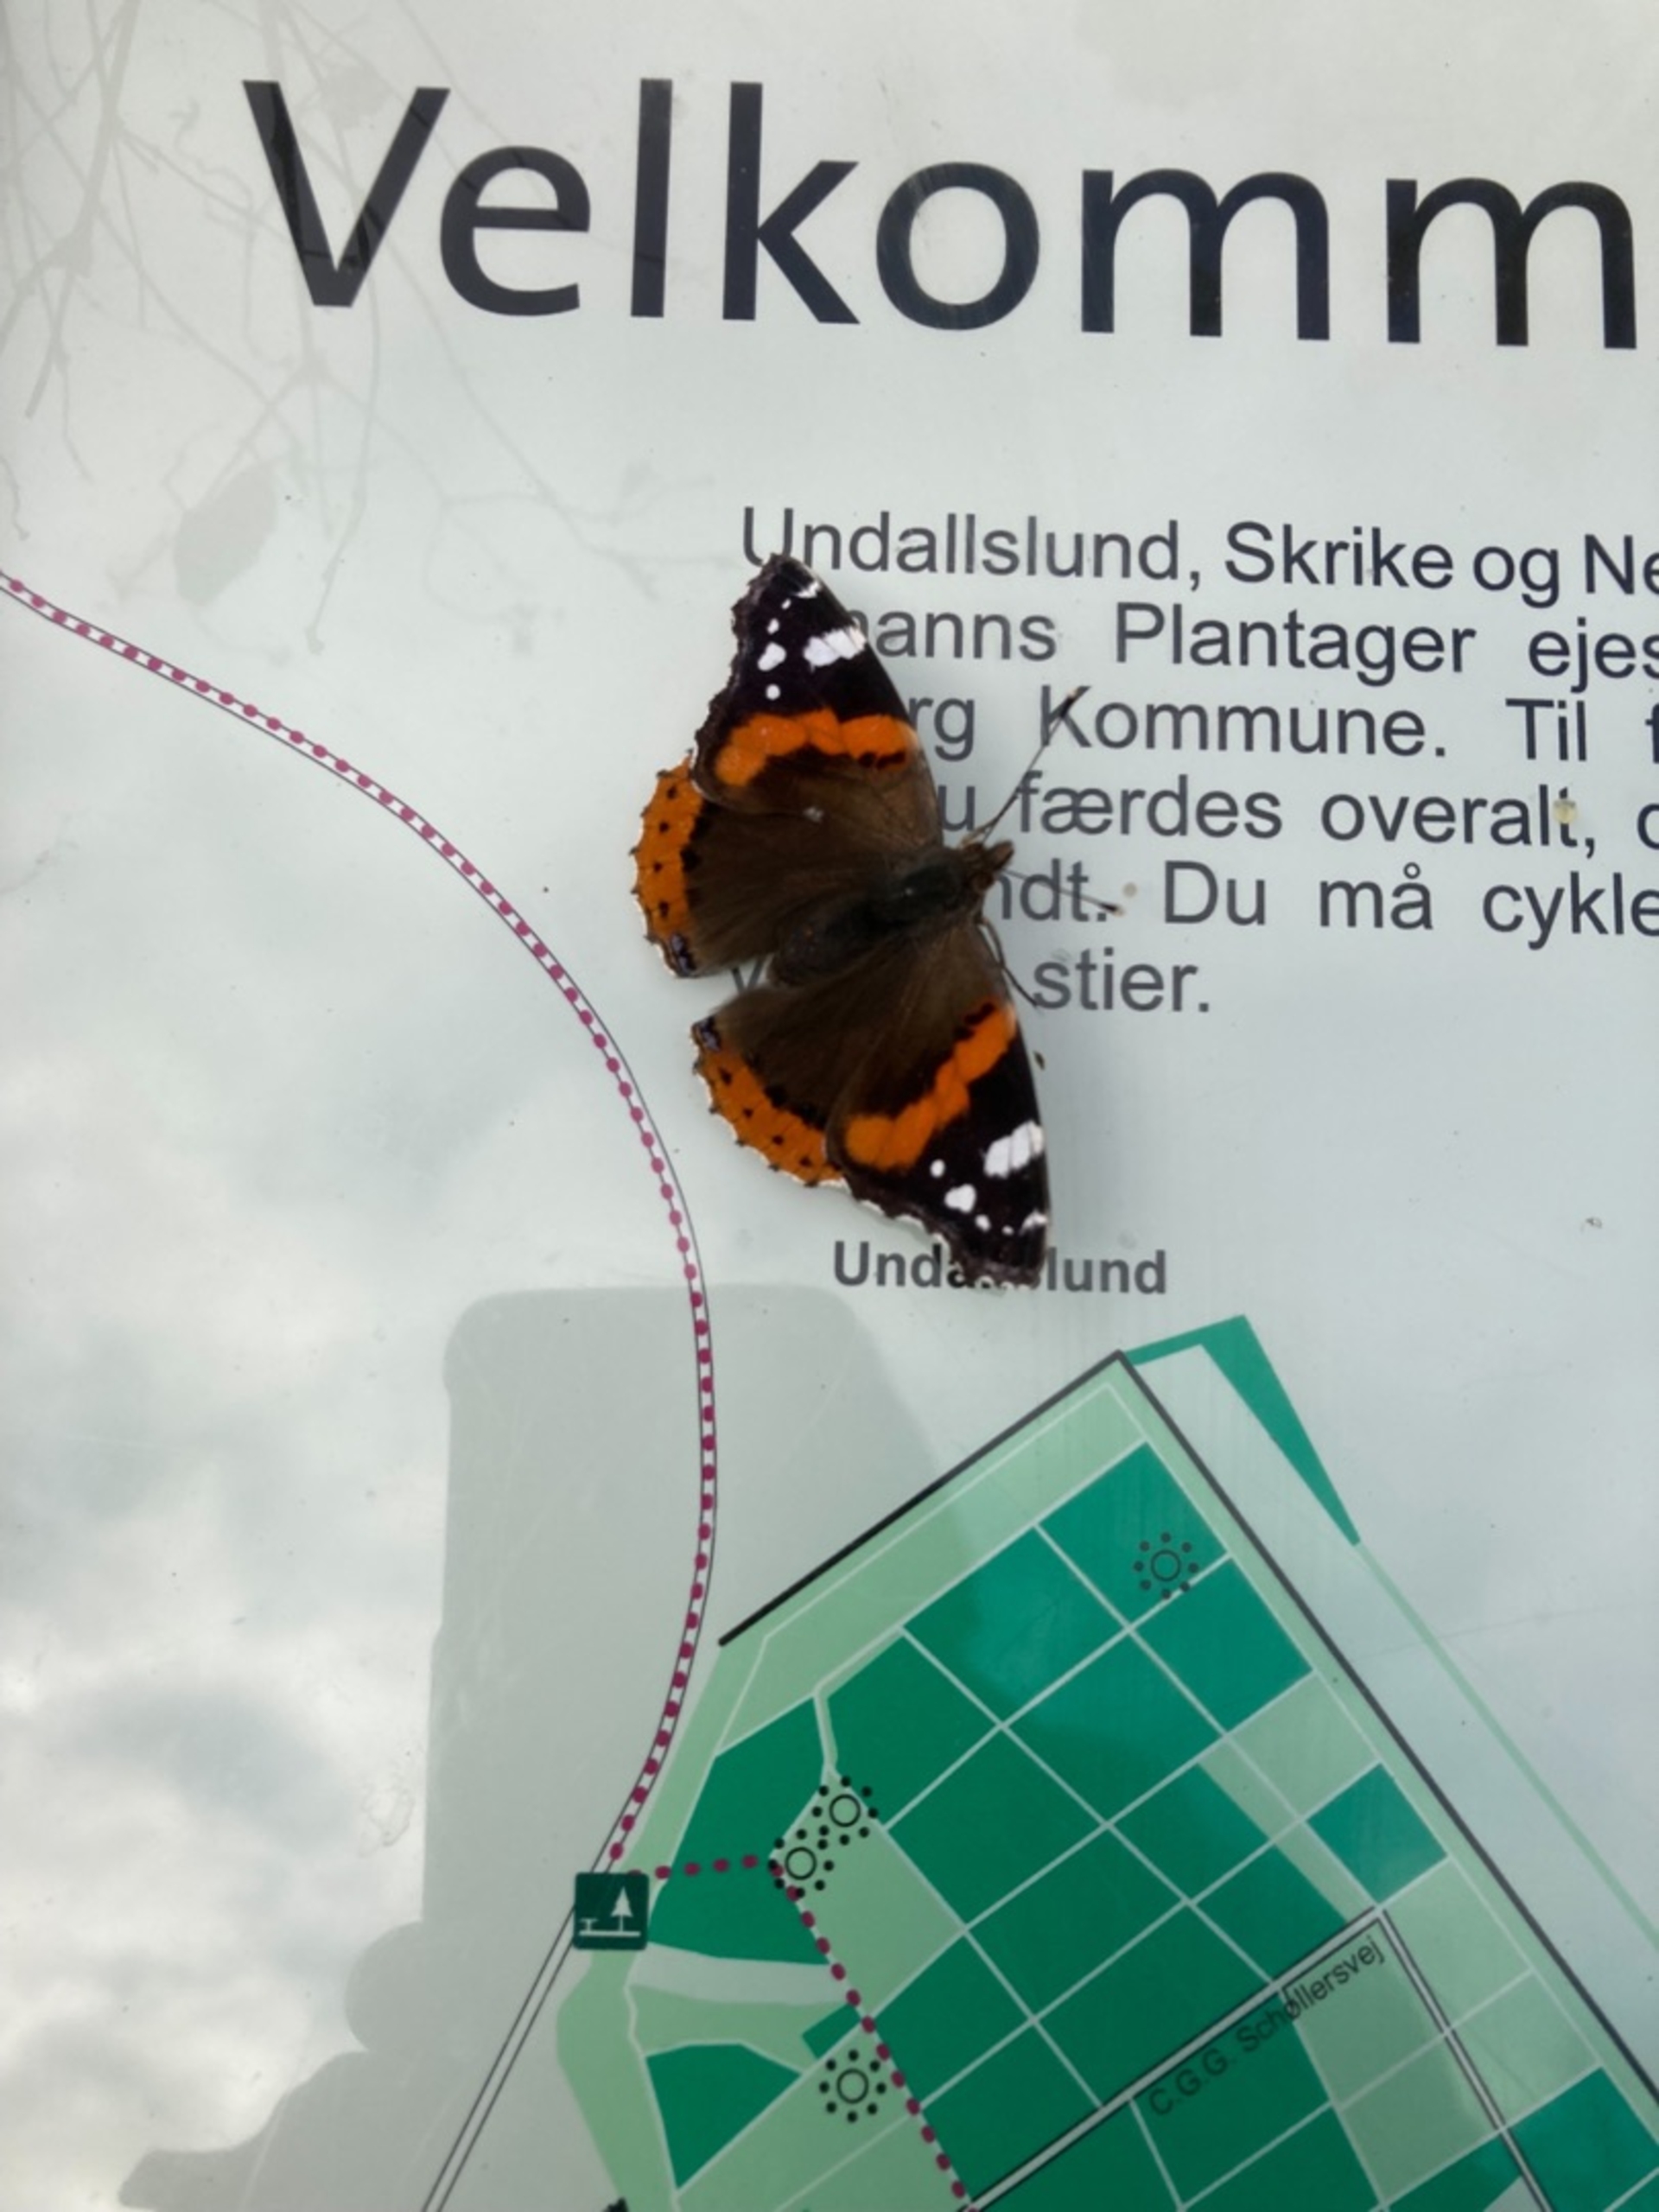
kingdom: Animalia
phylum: Arthropoda
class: Insecta
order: Lepidoptera
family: Nymphalidae
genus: Vanessa
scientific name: Vanessa atalanta
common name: Admiral
